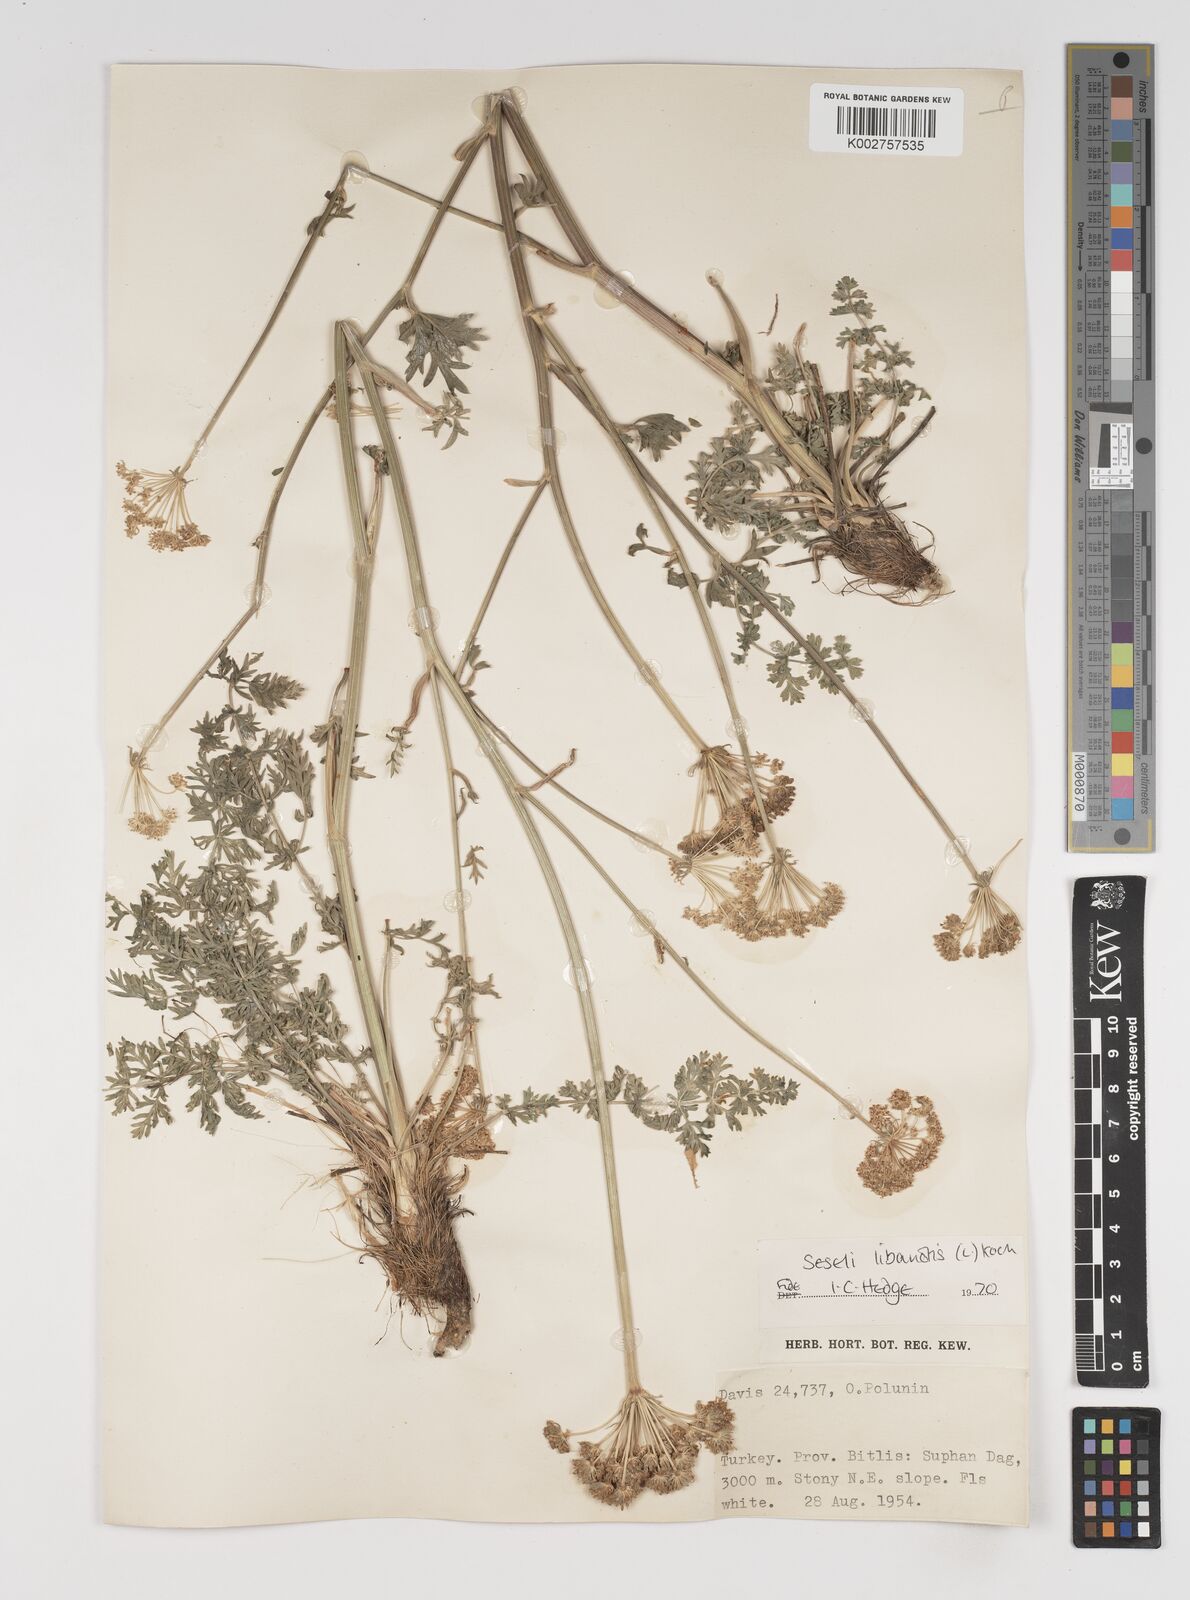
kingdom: Plantae
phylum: Tracheophyta
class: Magnoliopsida
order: Apiales
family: Apiaceae
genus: Seseli
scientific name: Seseli libanotis
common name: Mooncarrot
